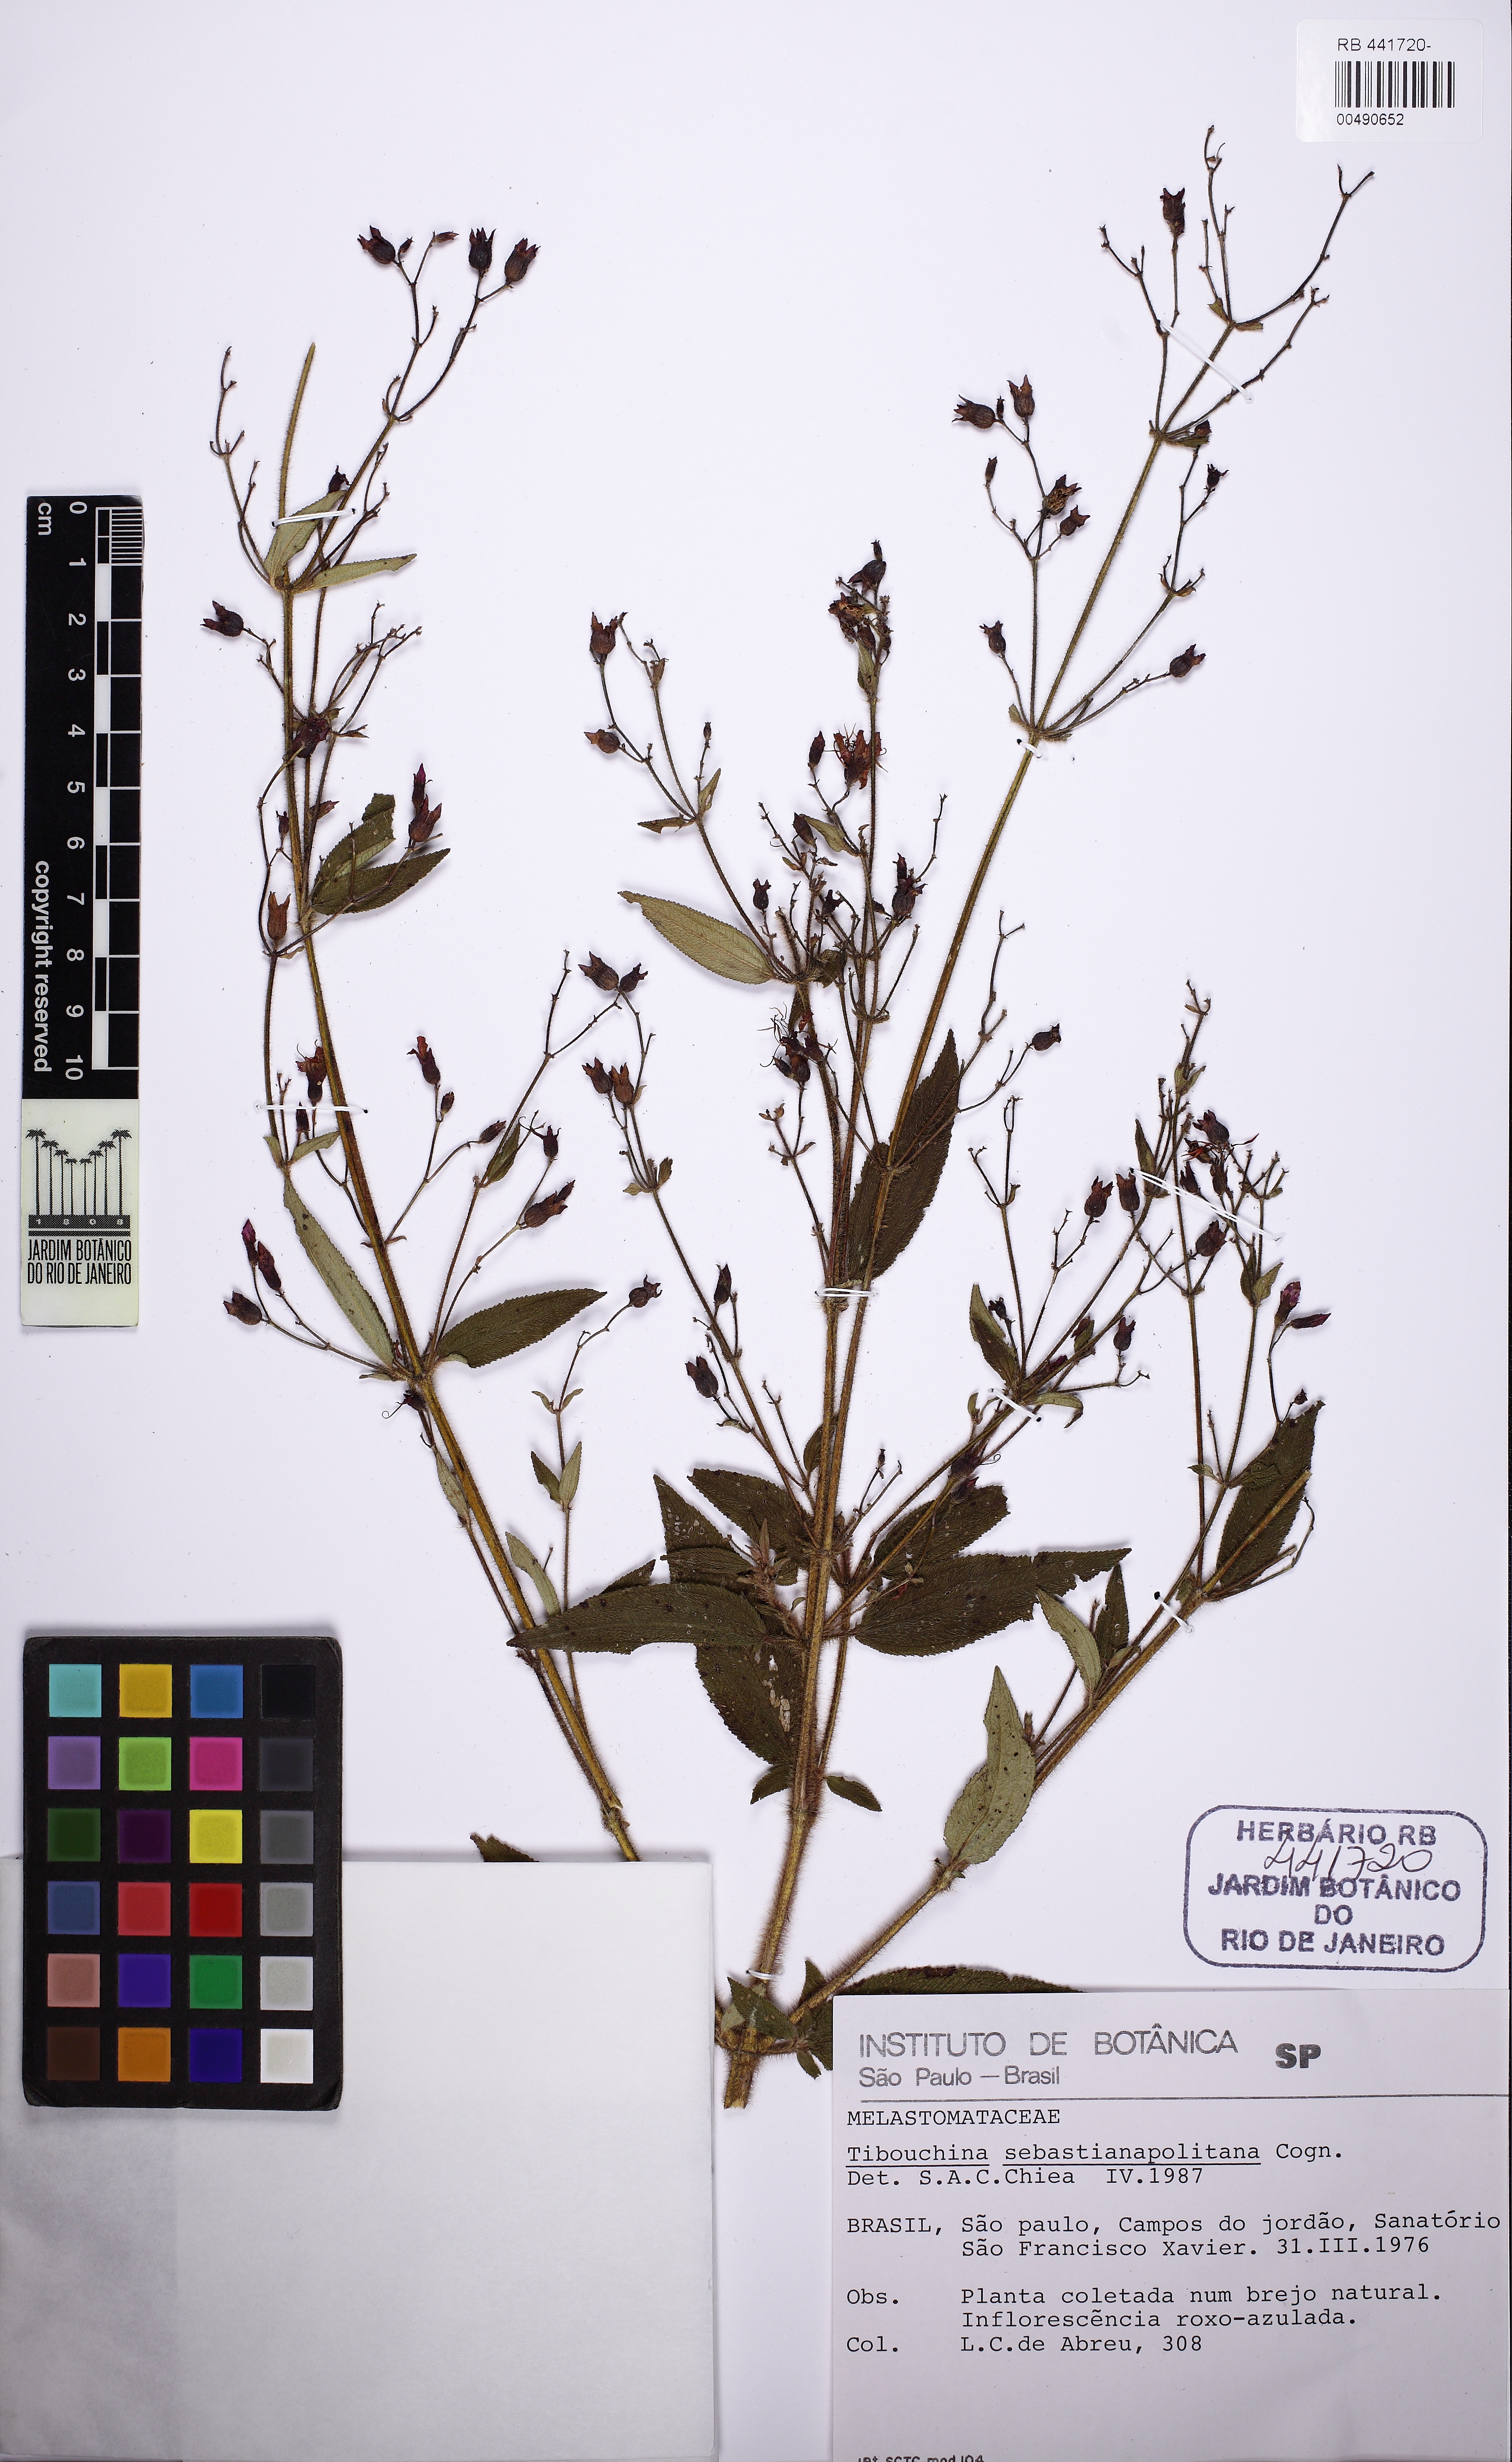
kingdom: Plantae
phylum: Tracheophyta
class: Magnoliopsida
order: Myrtales
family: Melastomataceae
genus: Chaetogastra
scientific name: Chaetogastra sebastianopolitana
